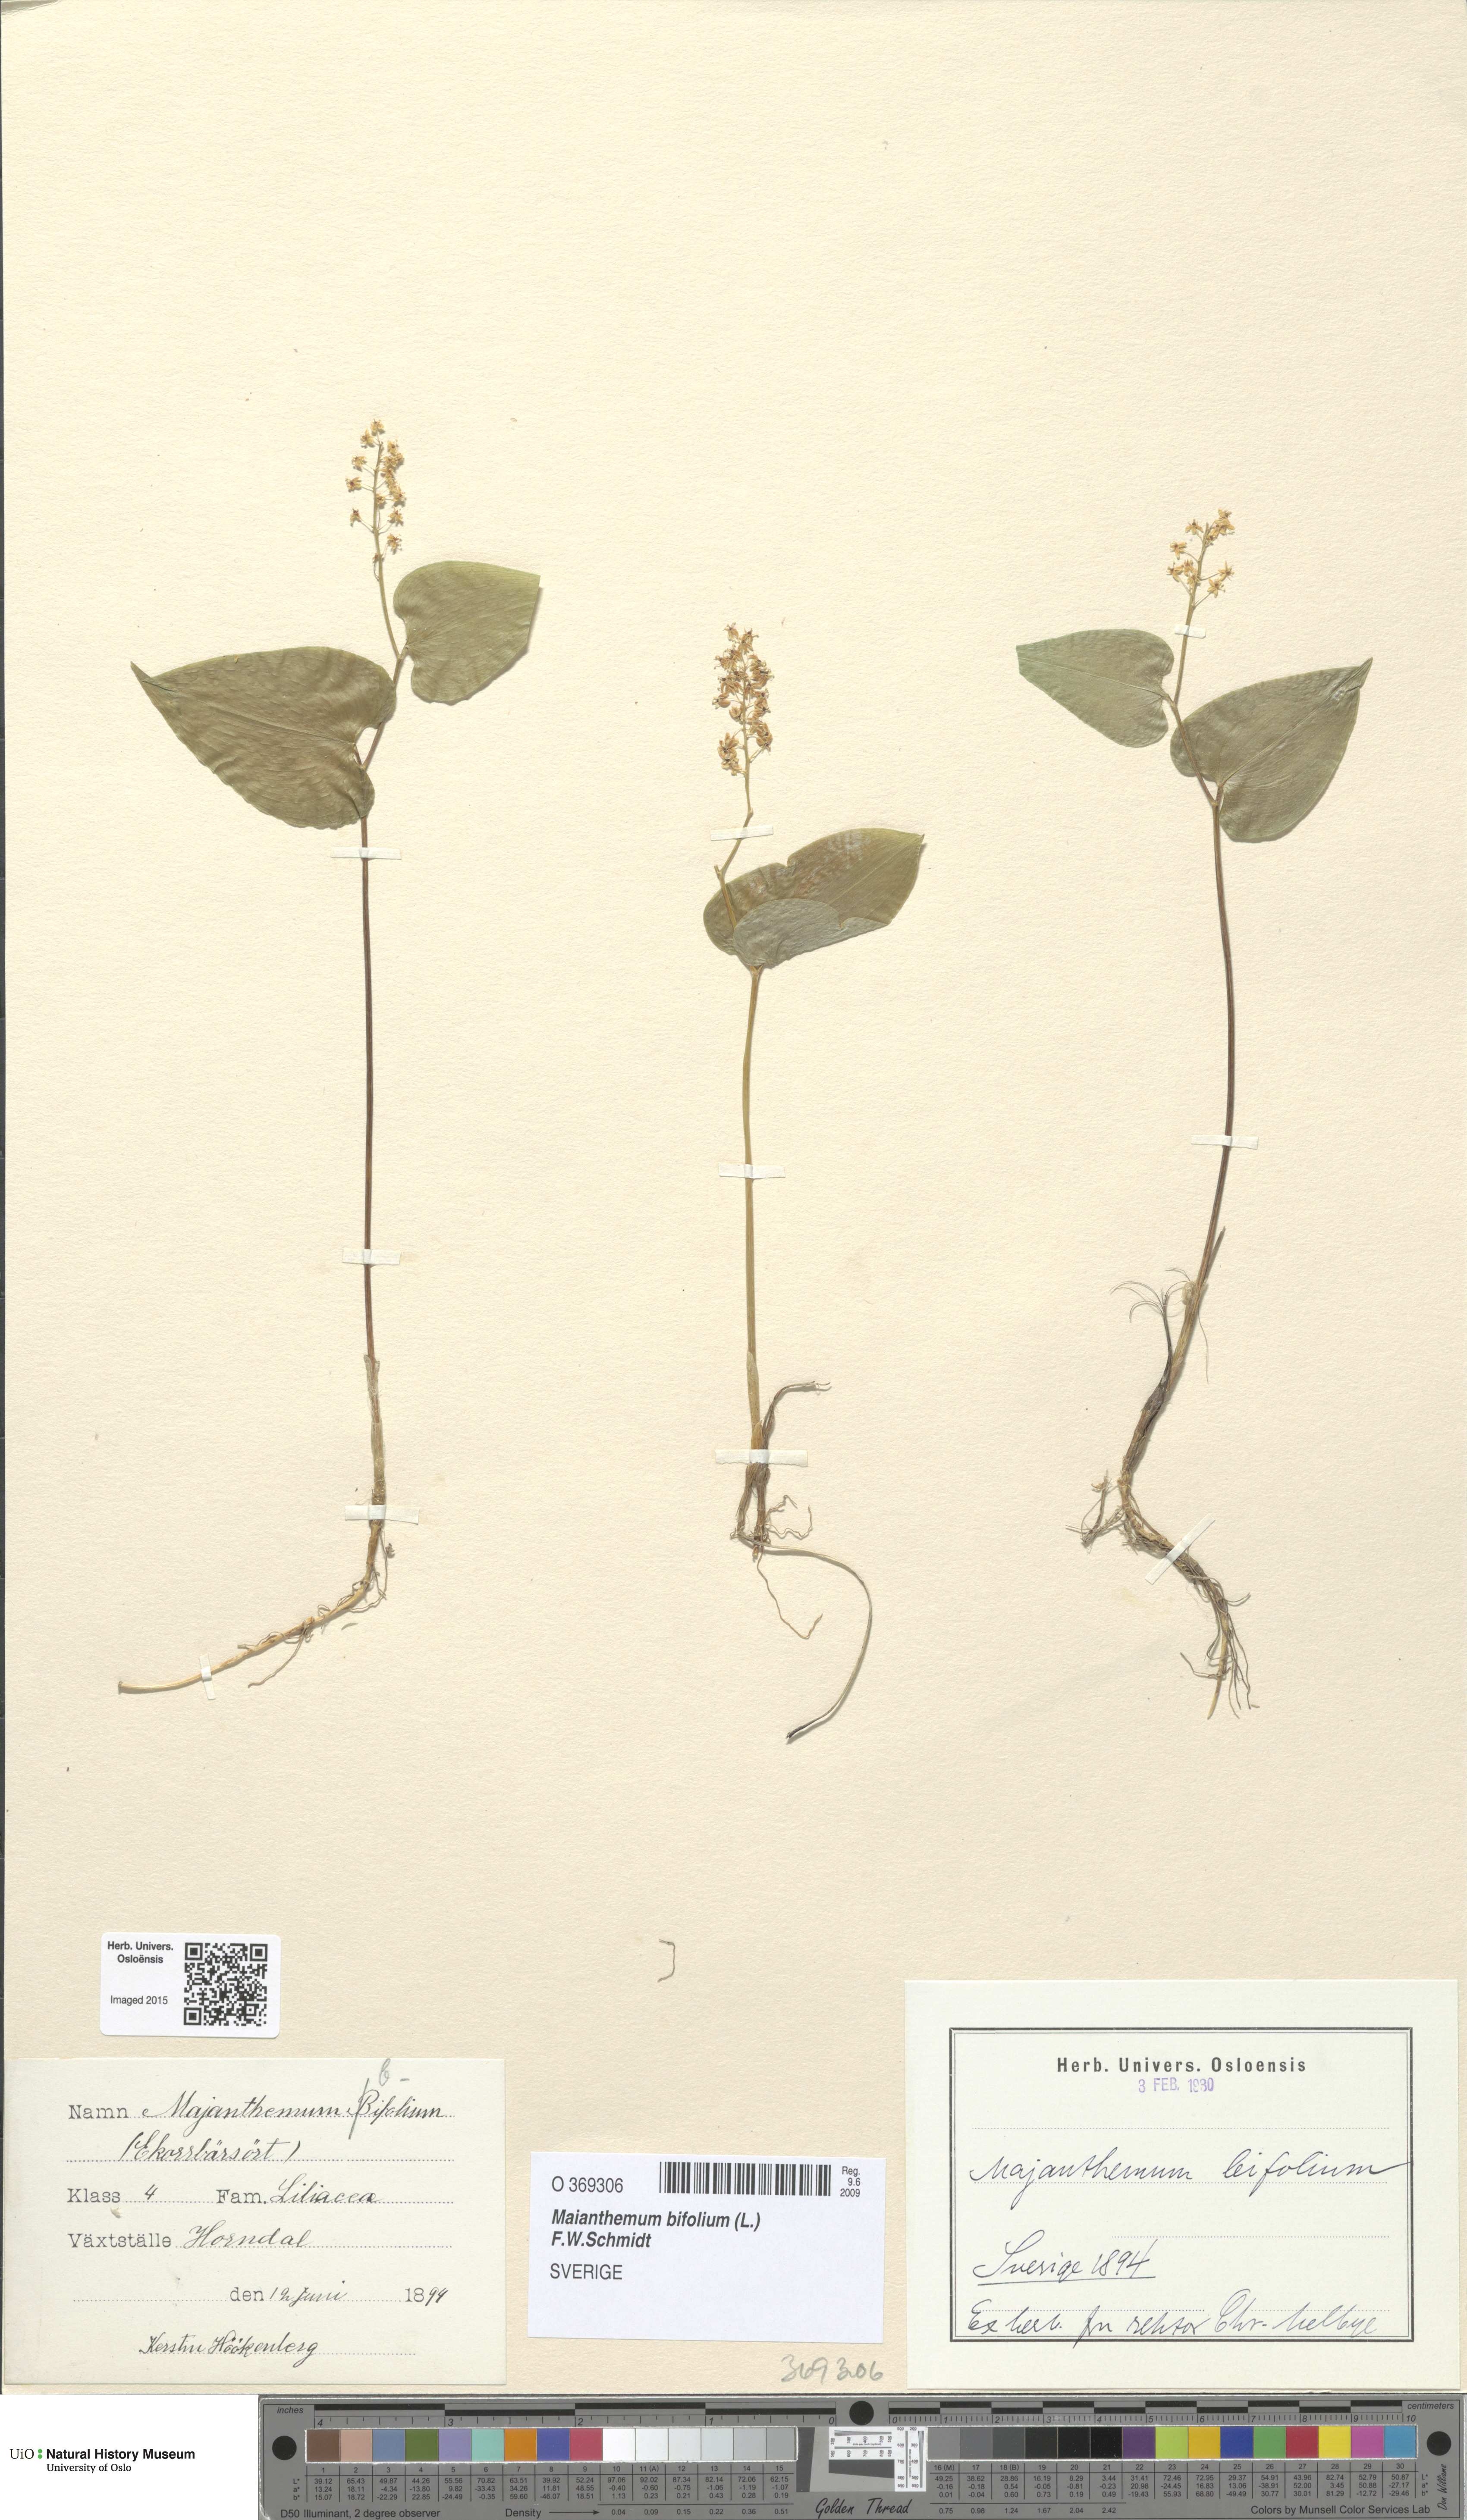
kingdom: Plantae
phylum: Tracheophyta
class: Liliopsida
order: Asparagales
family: Asparagaceae
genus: Maianthemum
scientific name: Maianthemum bifolium
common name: May lily
